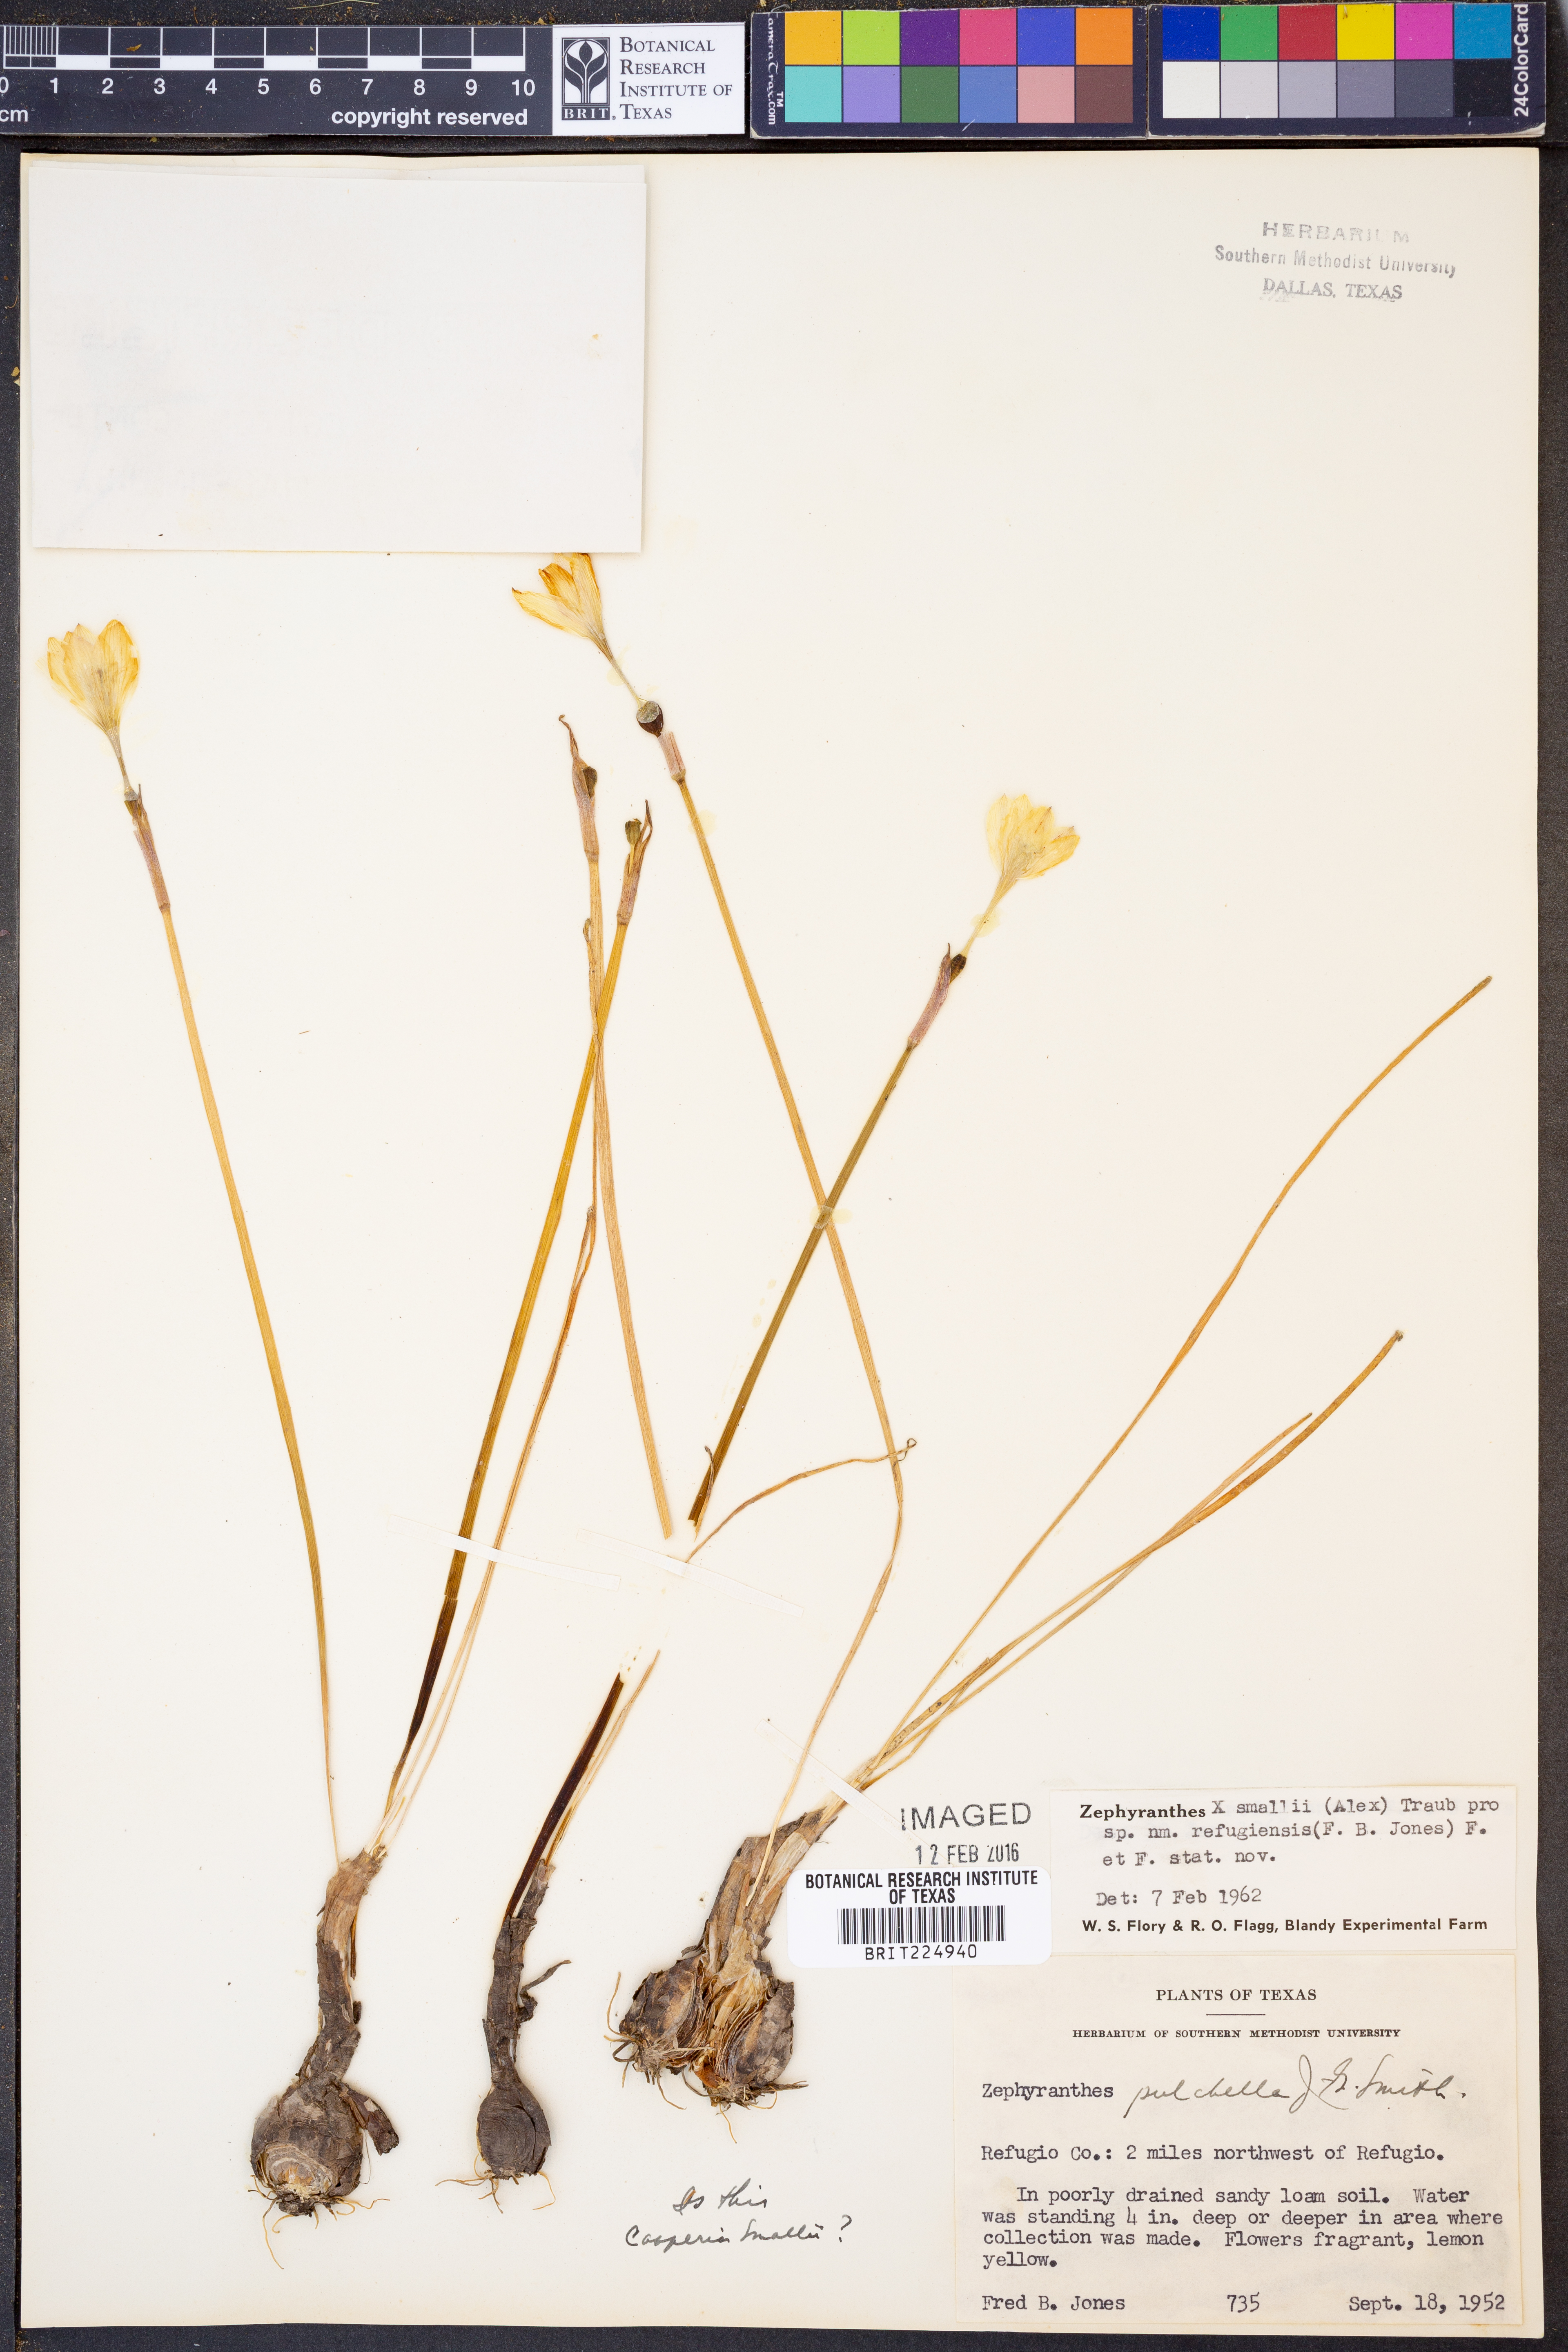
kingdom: Plantae
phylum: Tracheophyta
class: Liliopsida
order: Asparagales
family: Amaryllidaceae
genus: Zephyranthes
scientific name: Zephyranthes smallii
